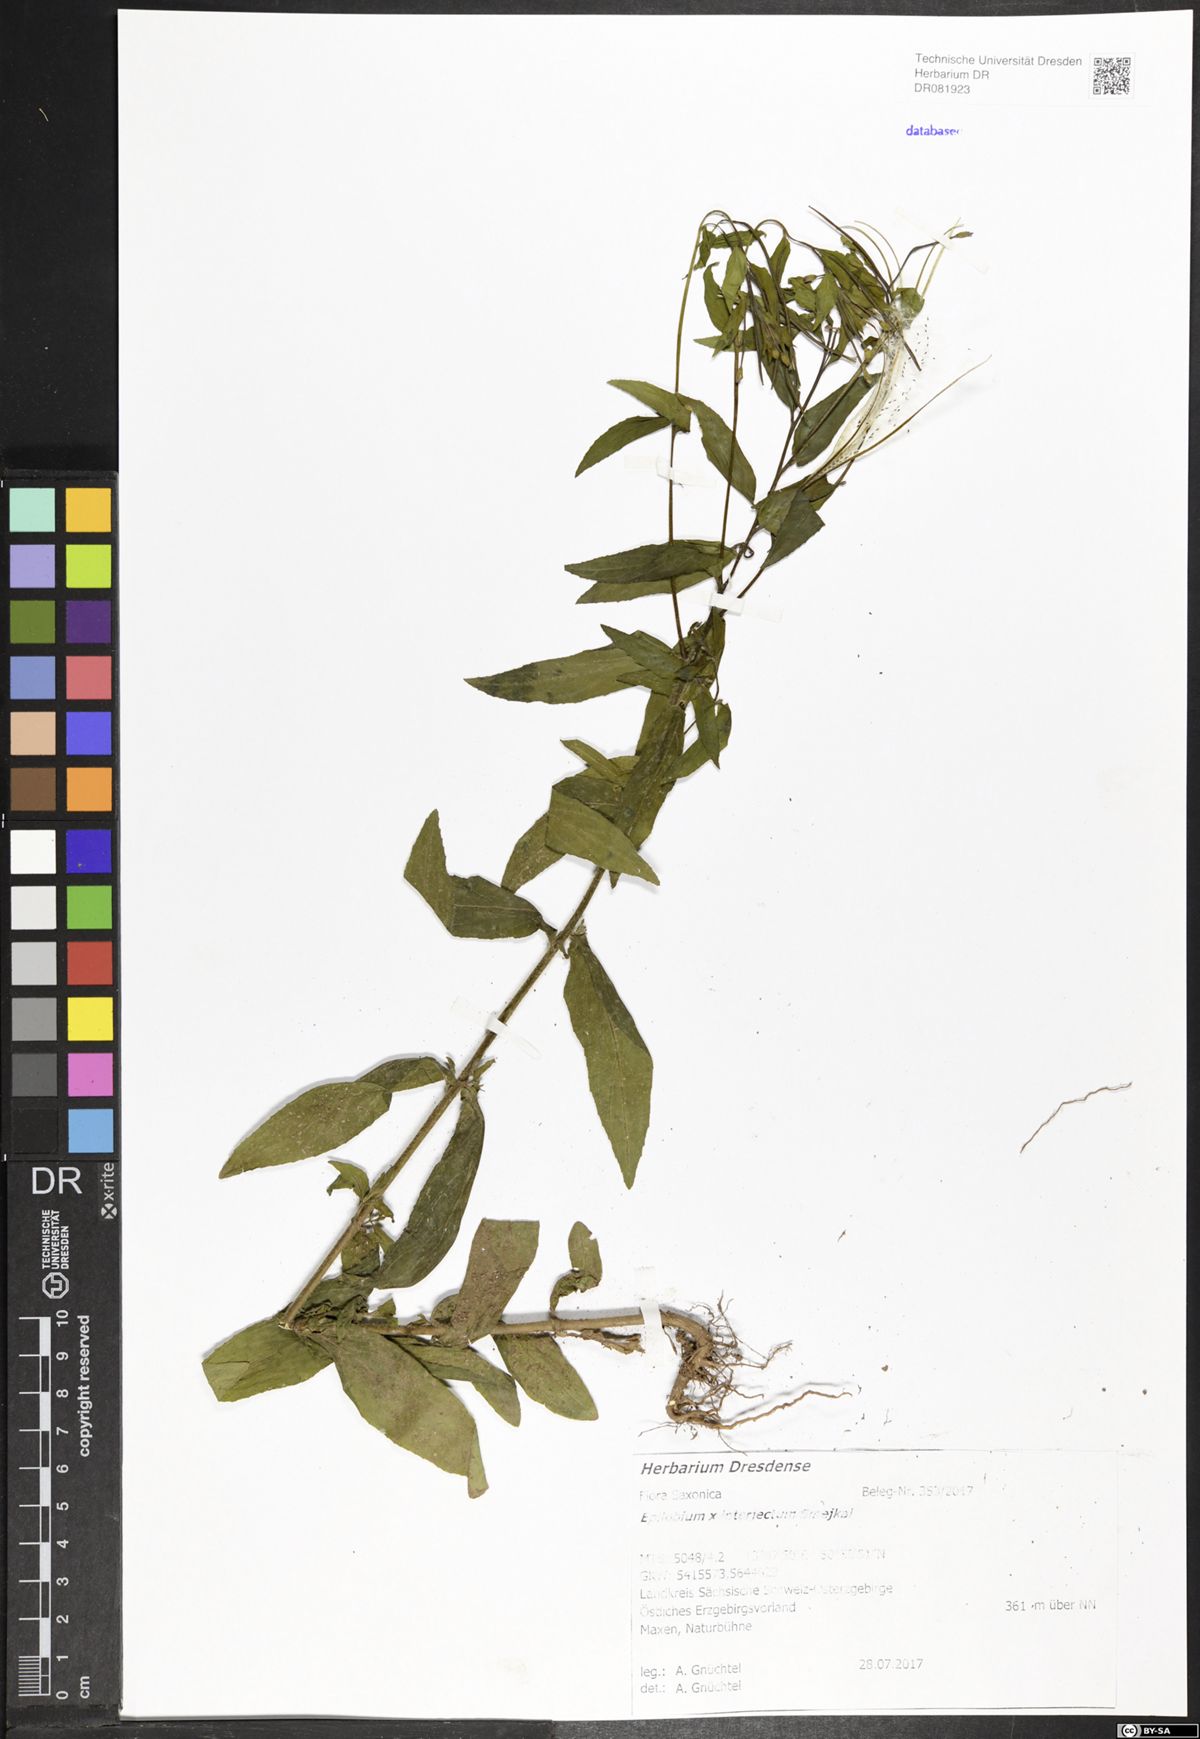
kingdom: Plantae
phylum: Tracheophyta
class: Magnoliopsida
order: Myrtales
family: Onagraceae
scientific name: Onagraceae
